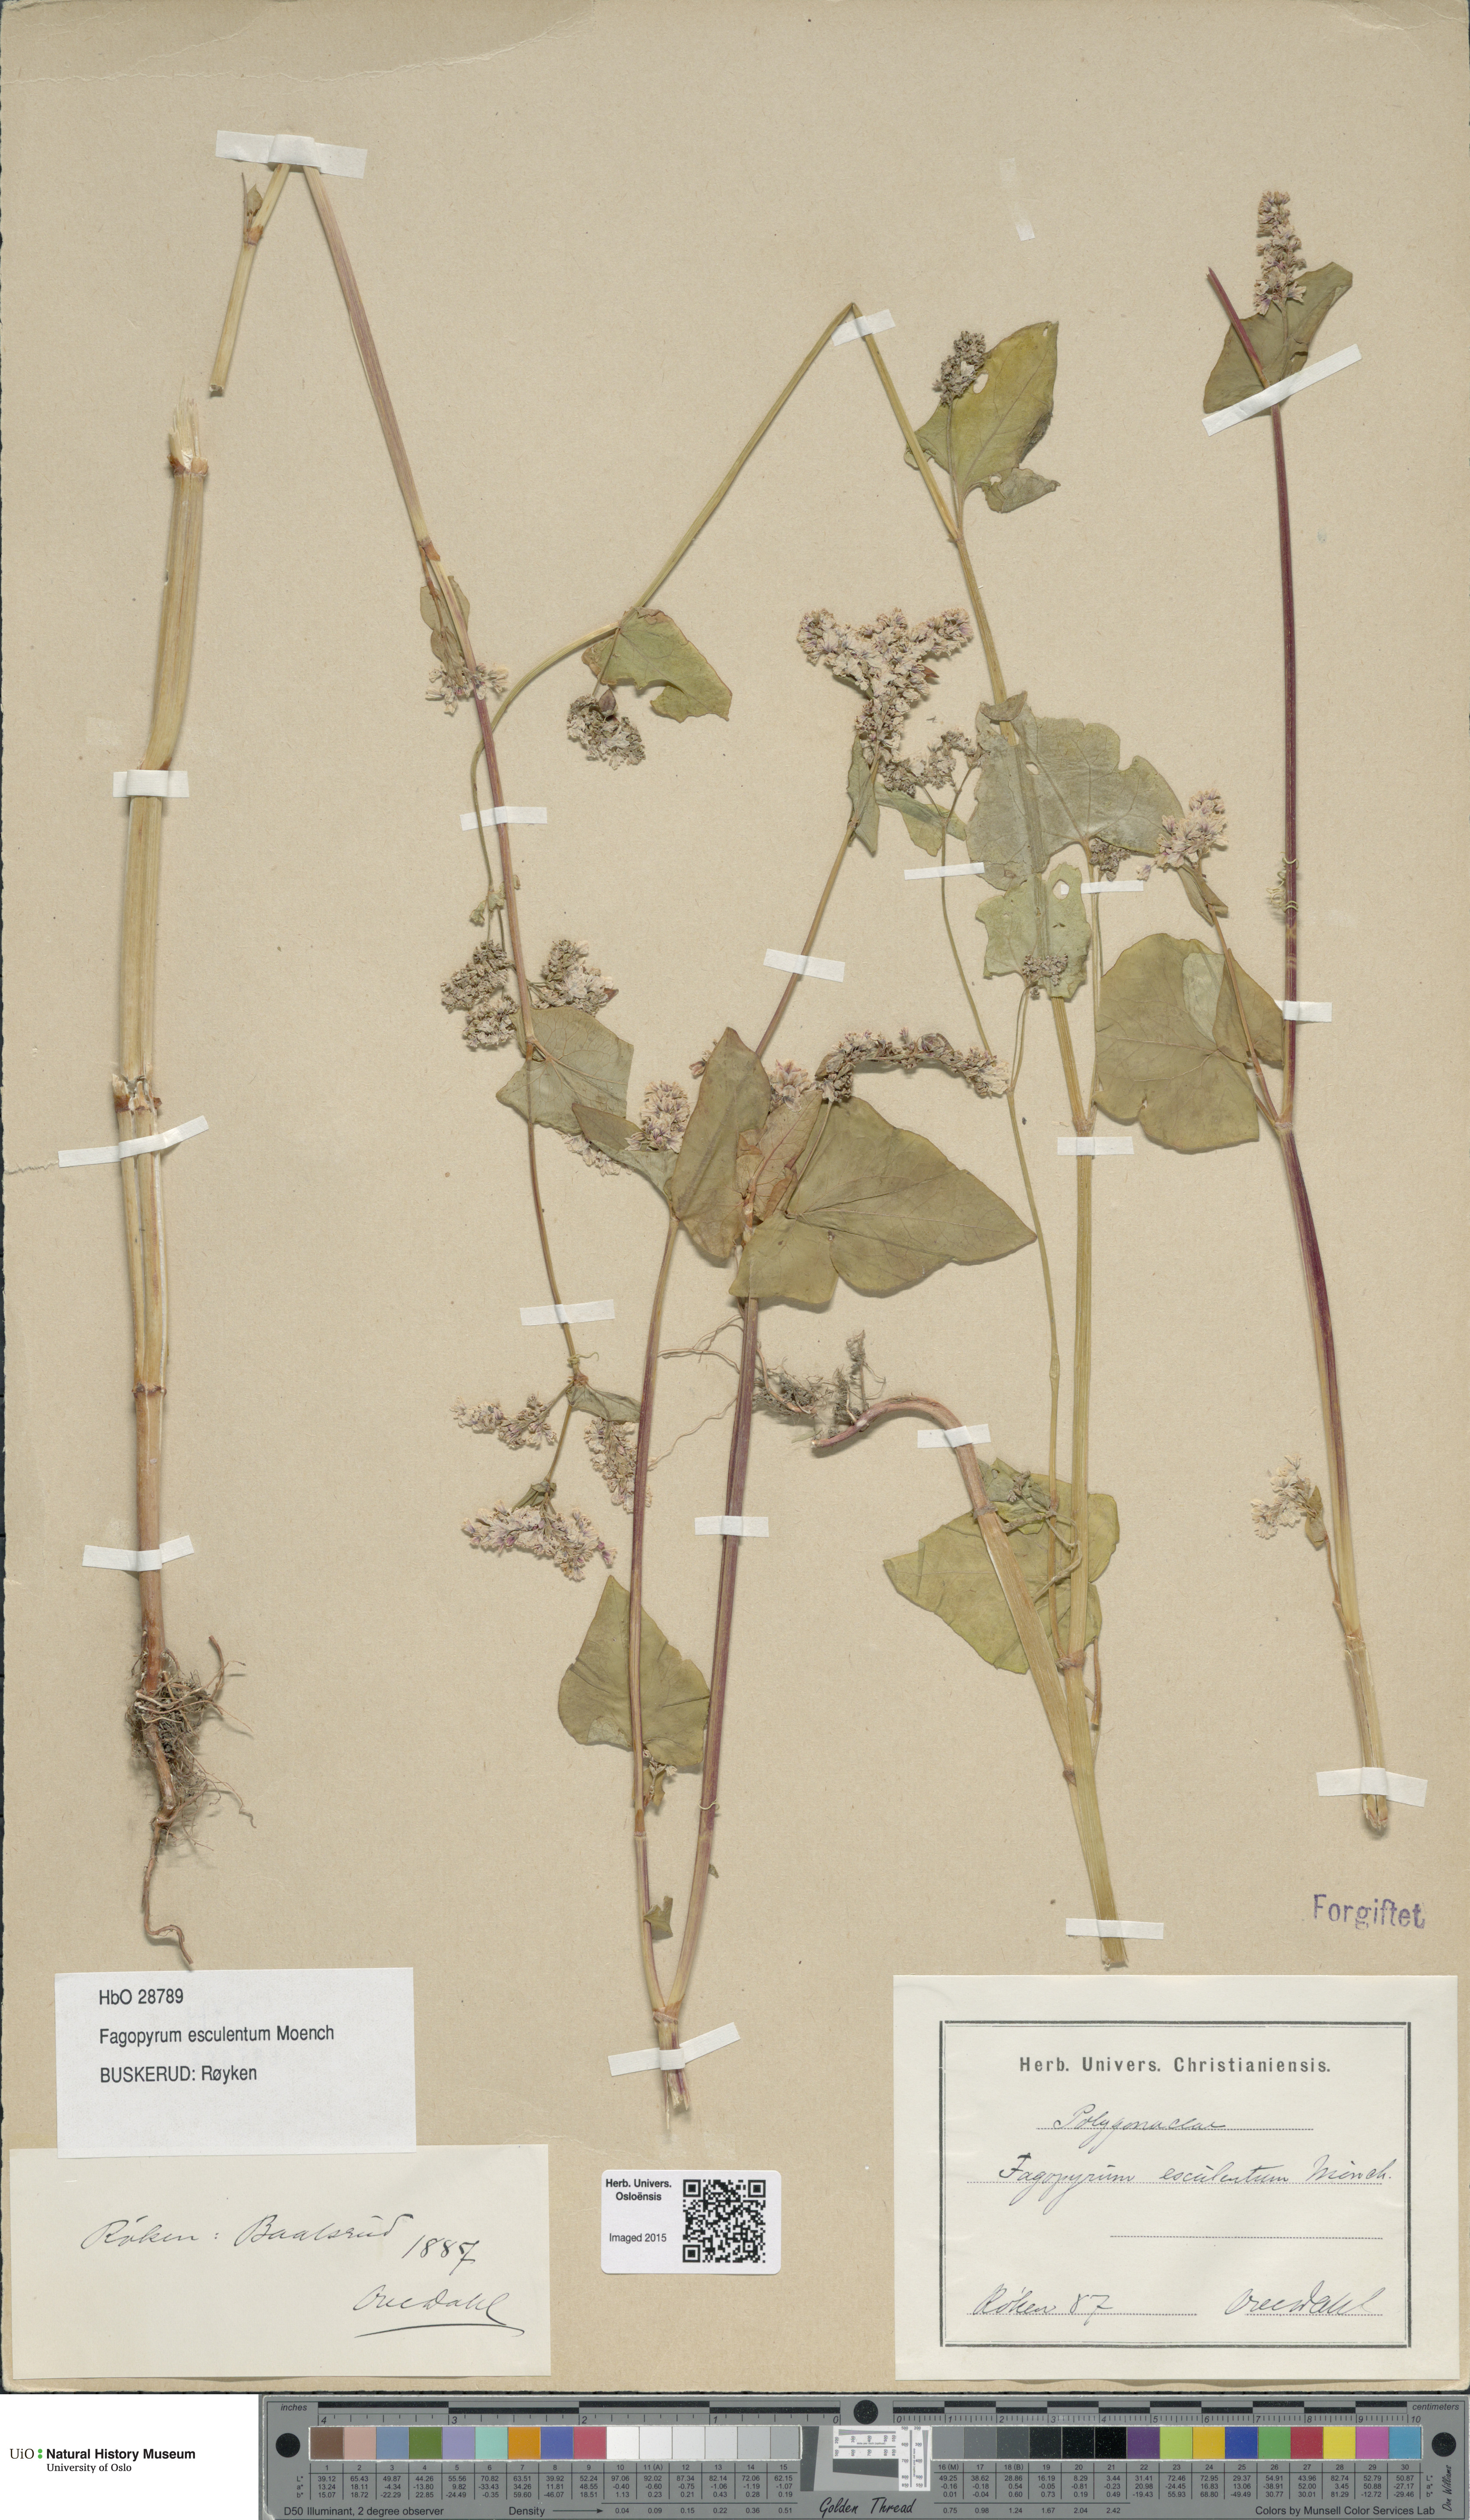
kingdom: Plantae
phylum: Tracheophyta
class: Magnoliopsida
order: Caryophyllales
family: Polygonaceae
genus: Fagopyrum
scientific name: Fagopyrum esculentum
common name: Buckwheat
